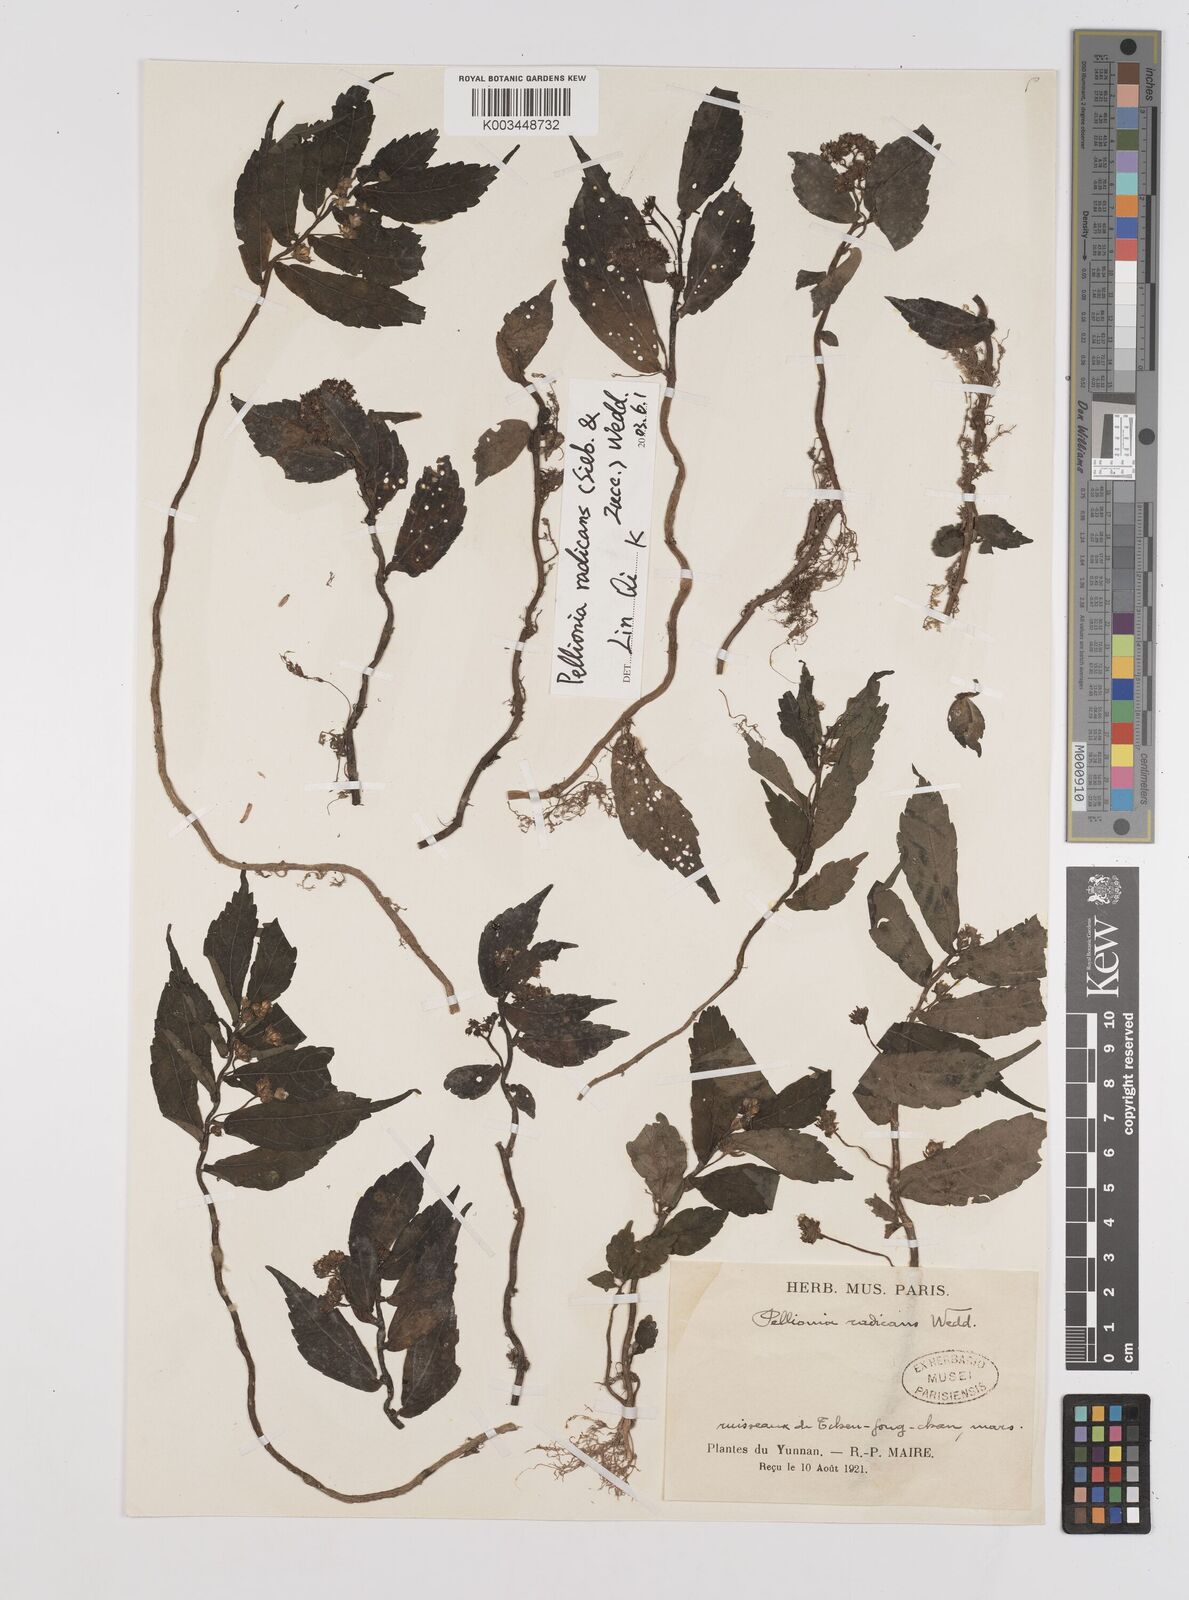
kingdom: Plantae
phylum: Tracheophyta
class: Magnoliopsida
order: Rosales
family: Urticaceae
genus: Elatostema
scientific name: Elatostema radicans
